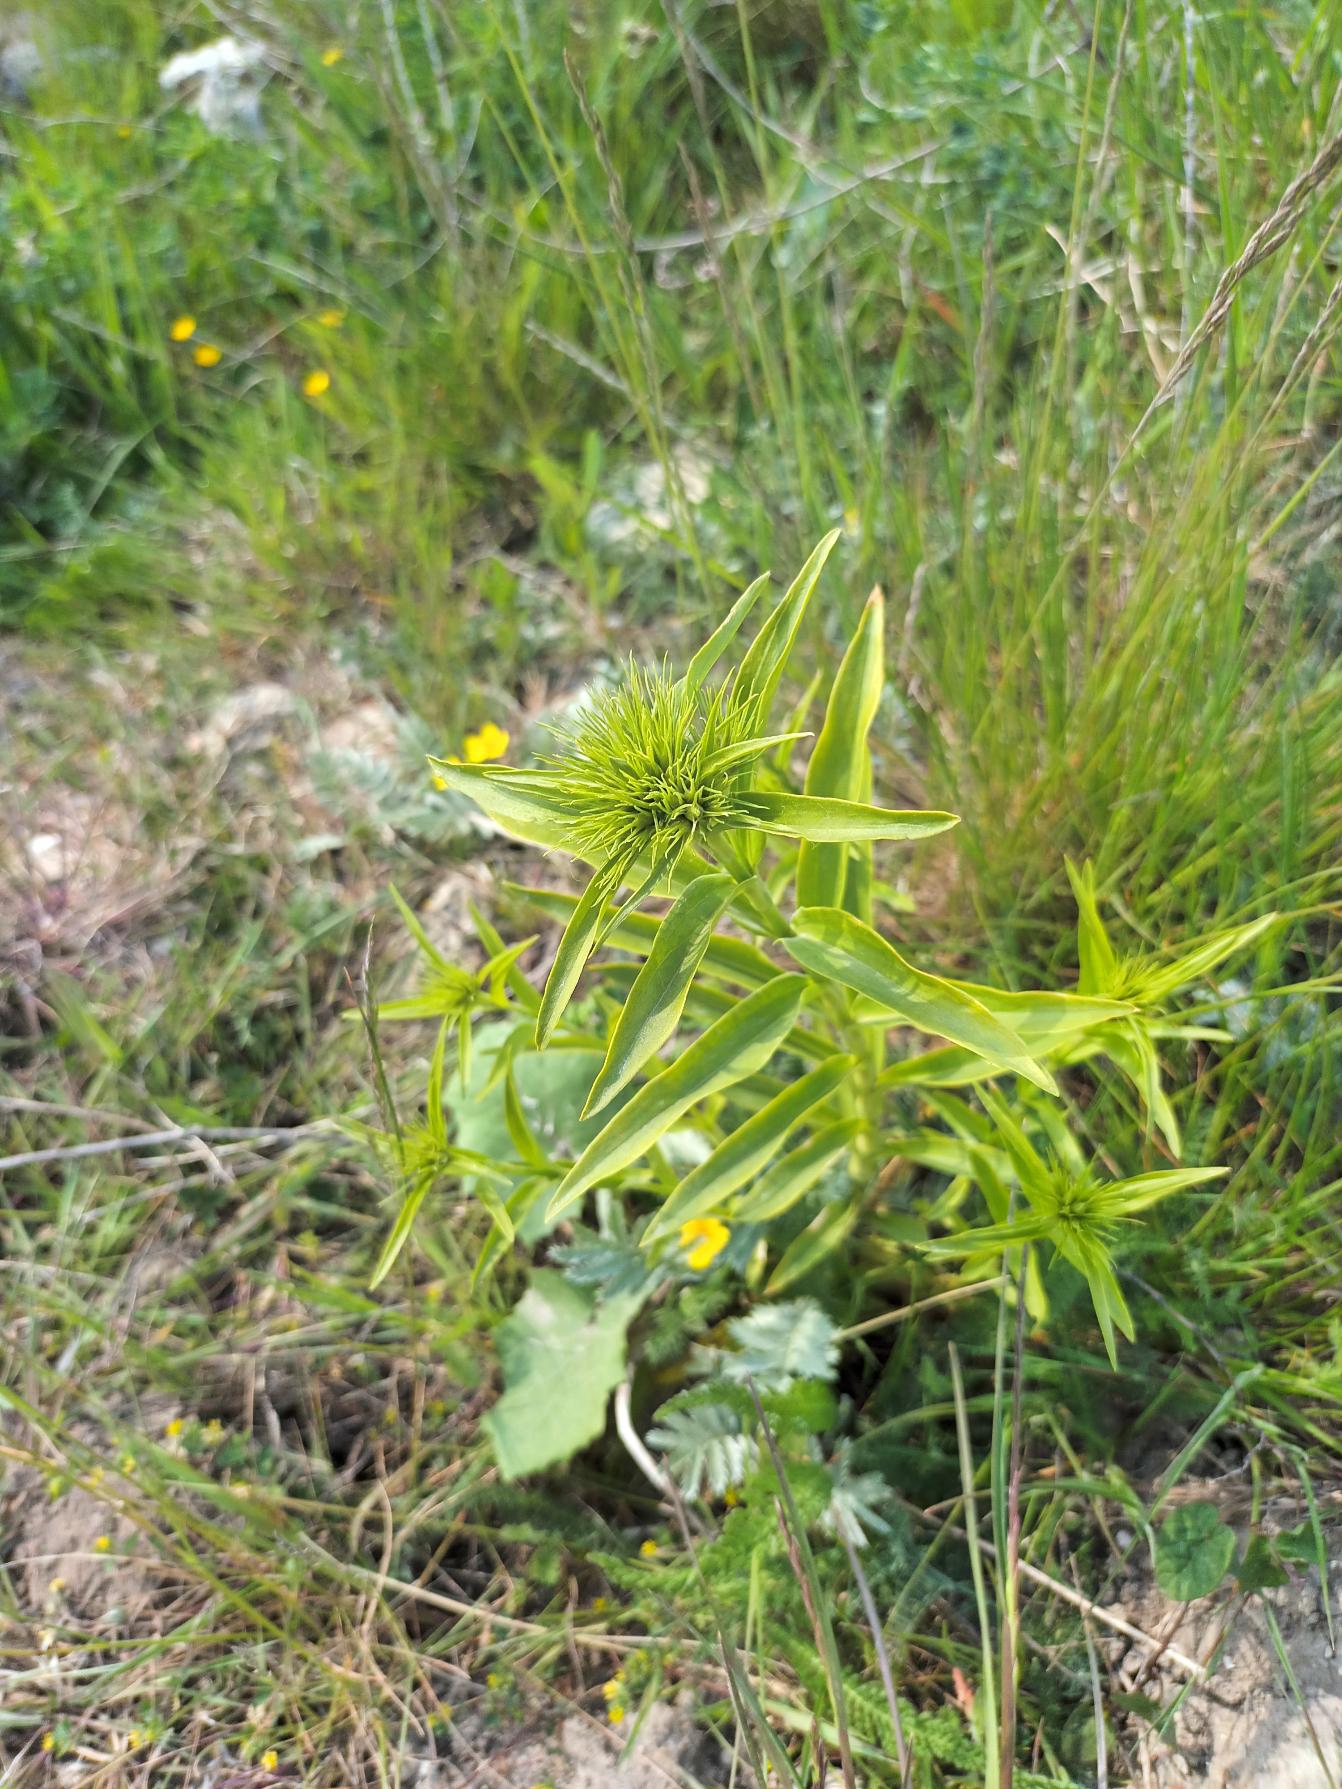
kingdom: Plantae
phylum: Tracheophyta
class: Magnoliopsida
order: Caryophyllales
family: Caryophyllaceae
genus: Dianthus
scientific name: Dianthus barbatus
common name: Studenter-nellike
